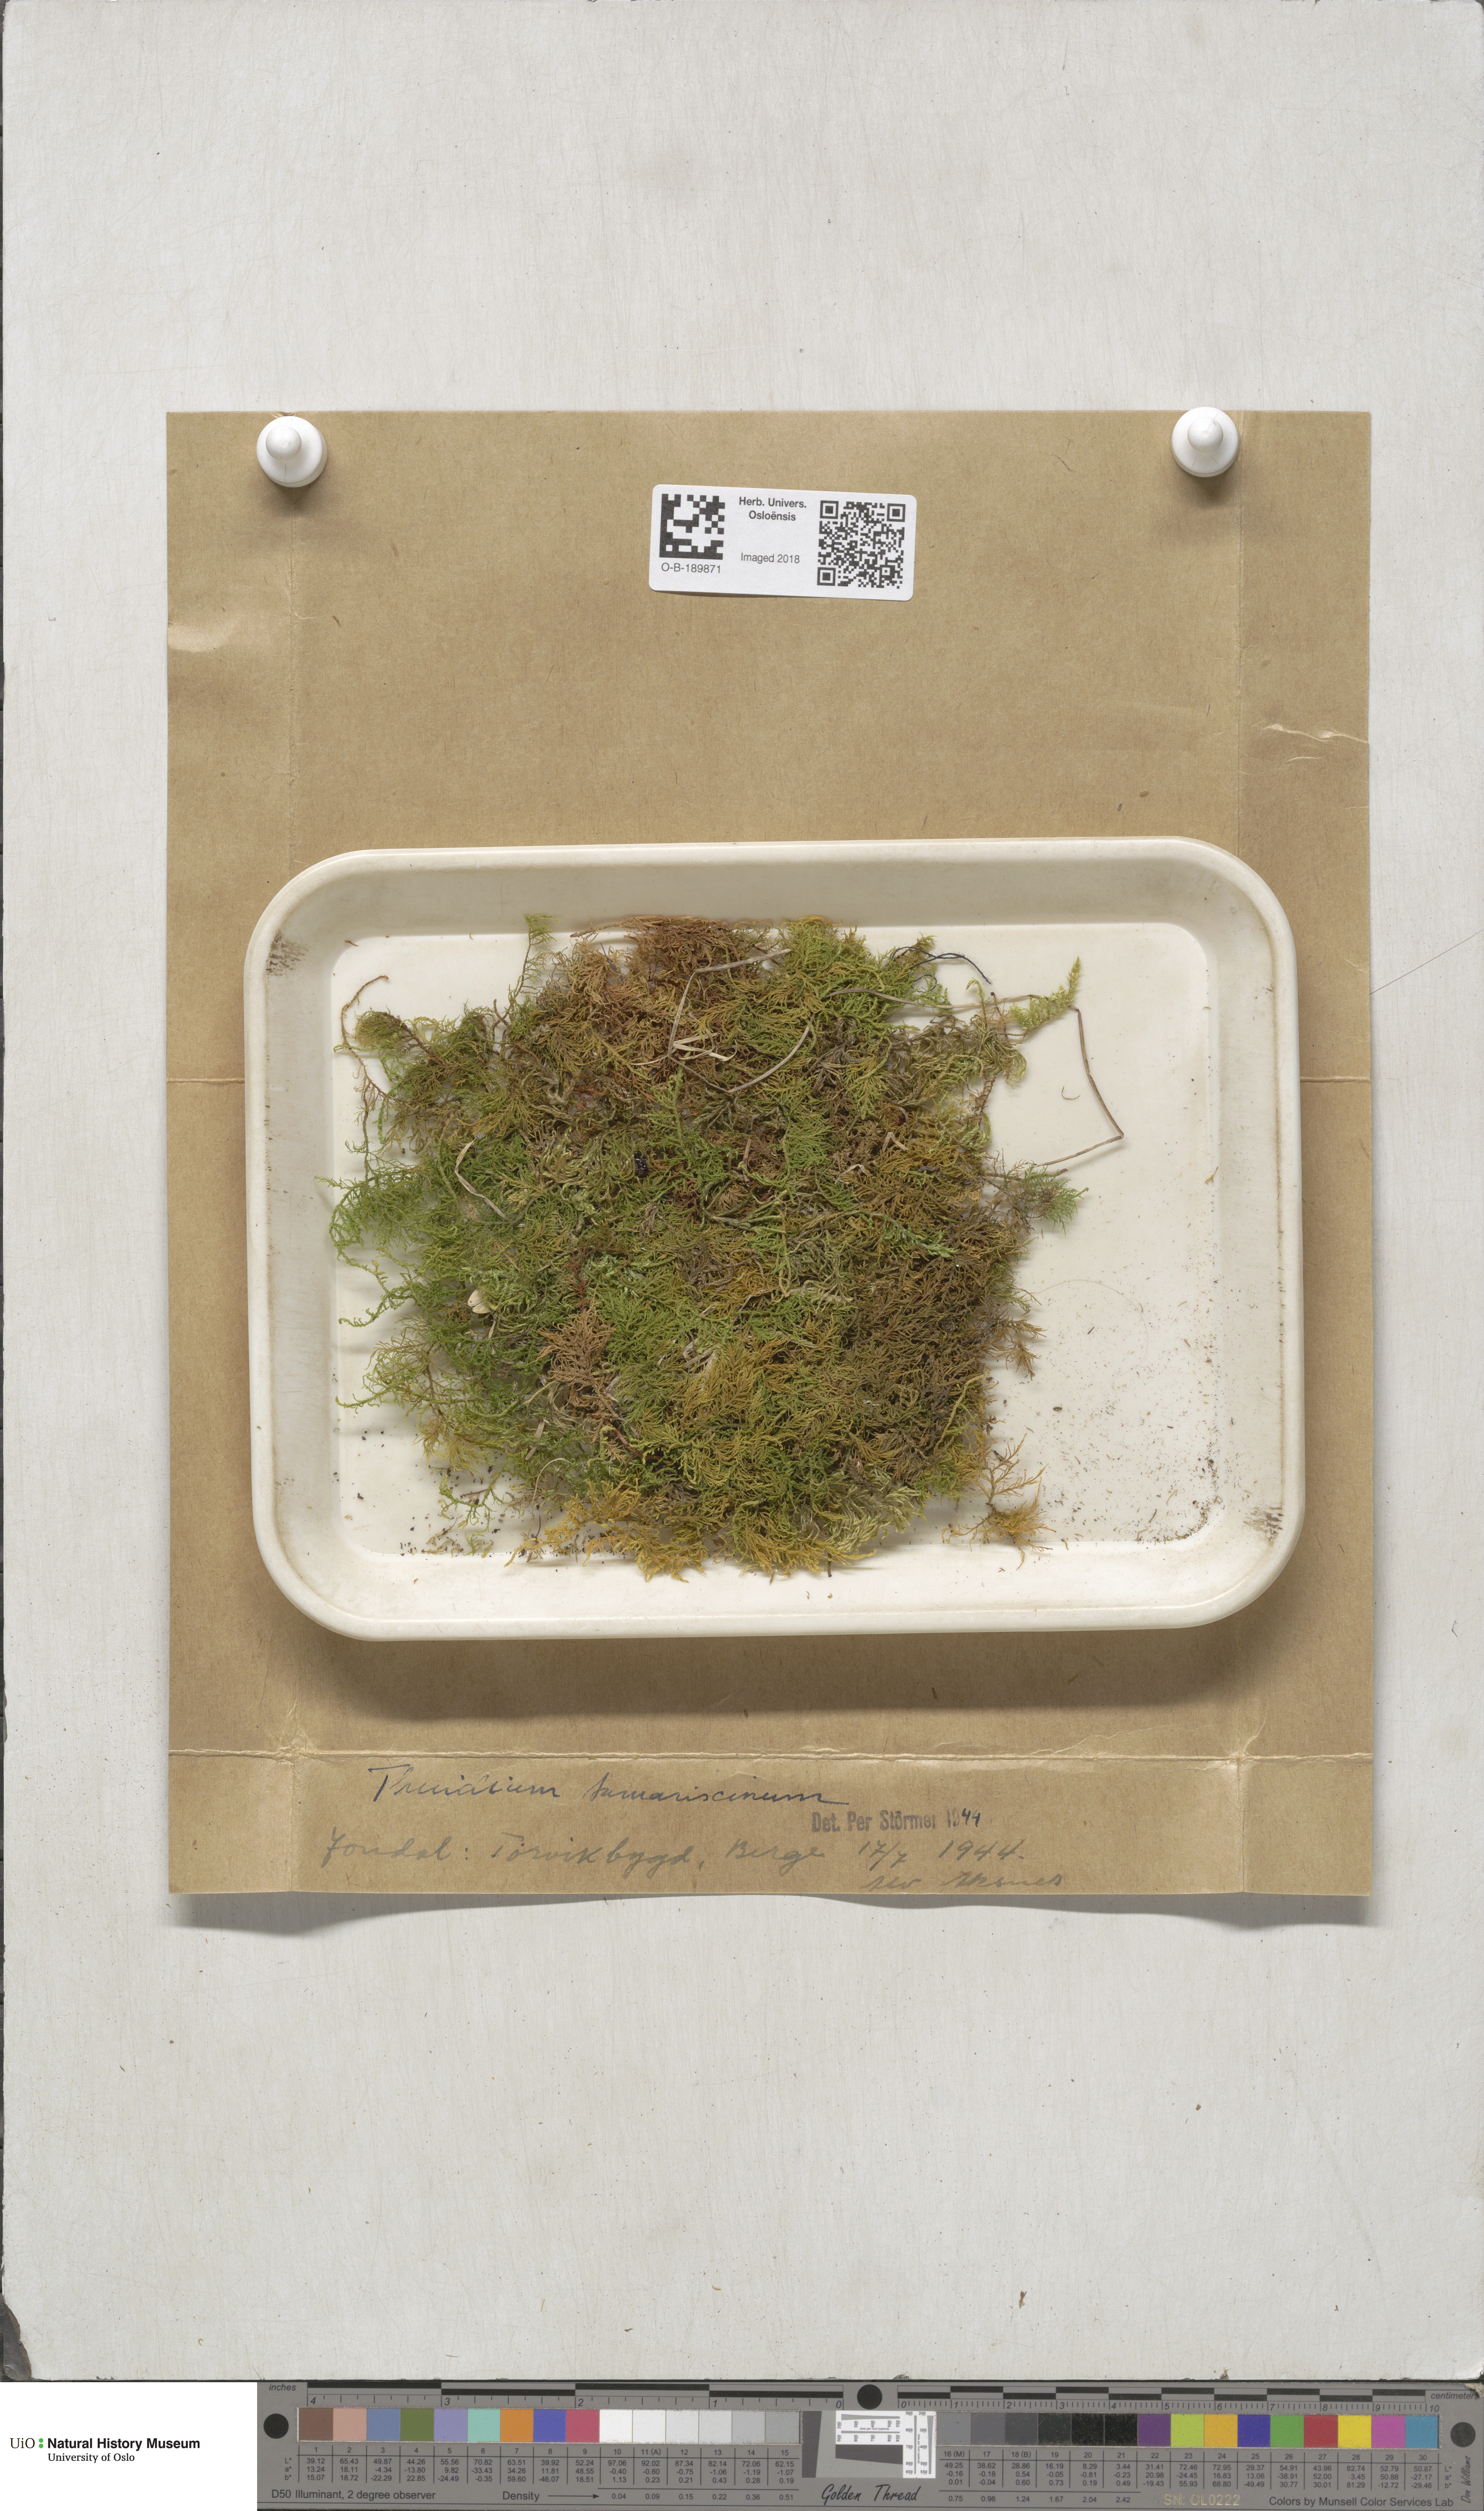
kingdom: Plantae
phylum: Bryophyta
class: Bryopsida
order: Hypnales
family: Thuidiaceae
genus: Thuidium
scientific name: Thuidium tamariscinum
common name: Common tamarisk-moss
